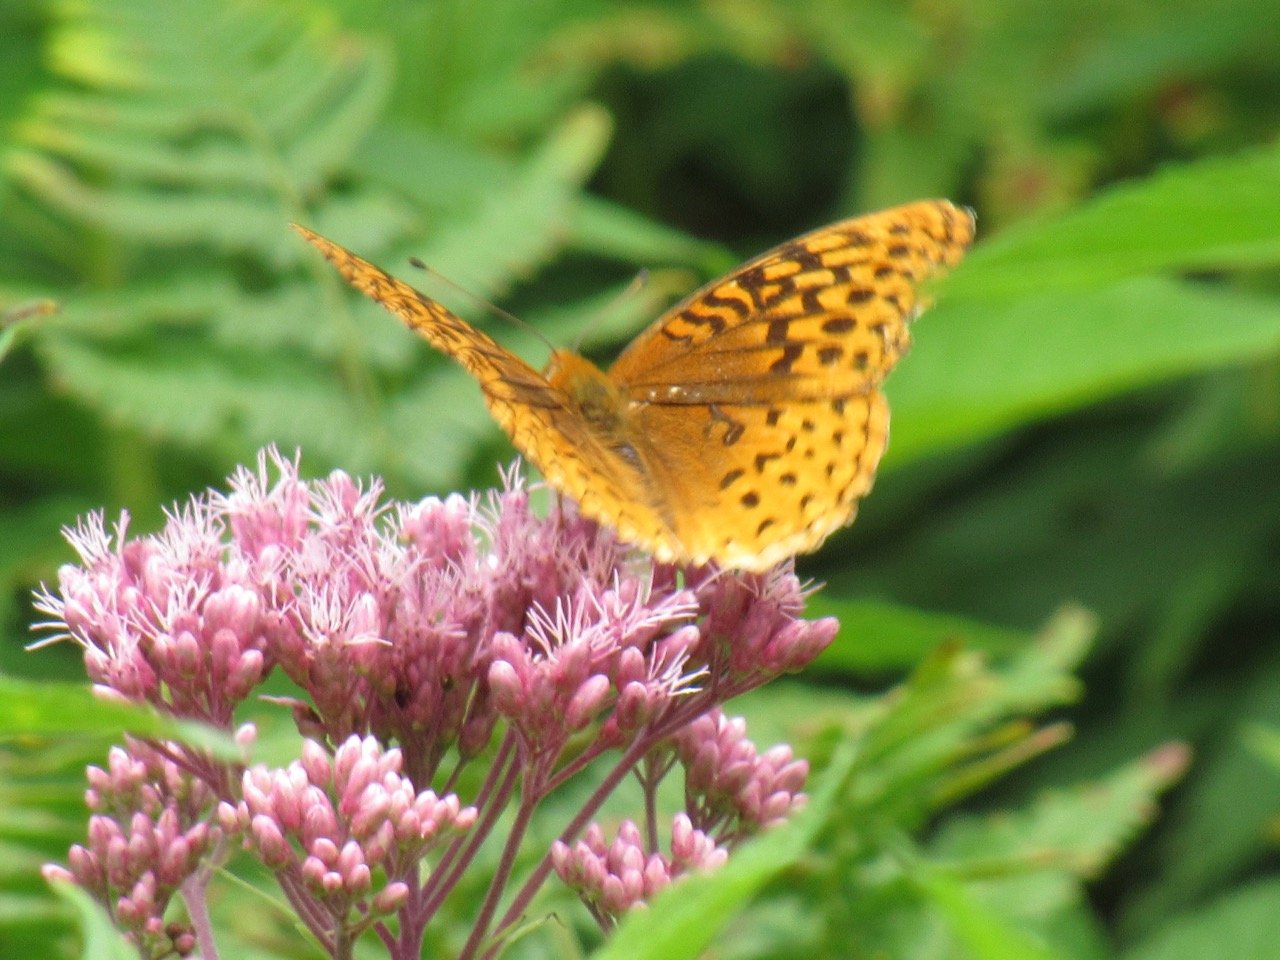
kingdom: Animalia
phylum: Arthropoda
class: Insecta
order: Lepidoptera
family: Nymphalidae
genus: Speyeria
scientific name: Speyeria cybele
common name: Great Spangled Fritillary
